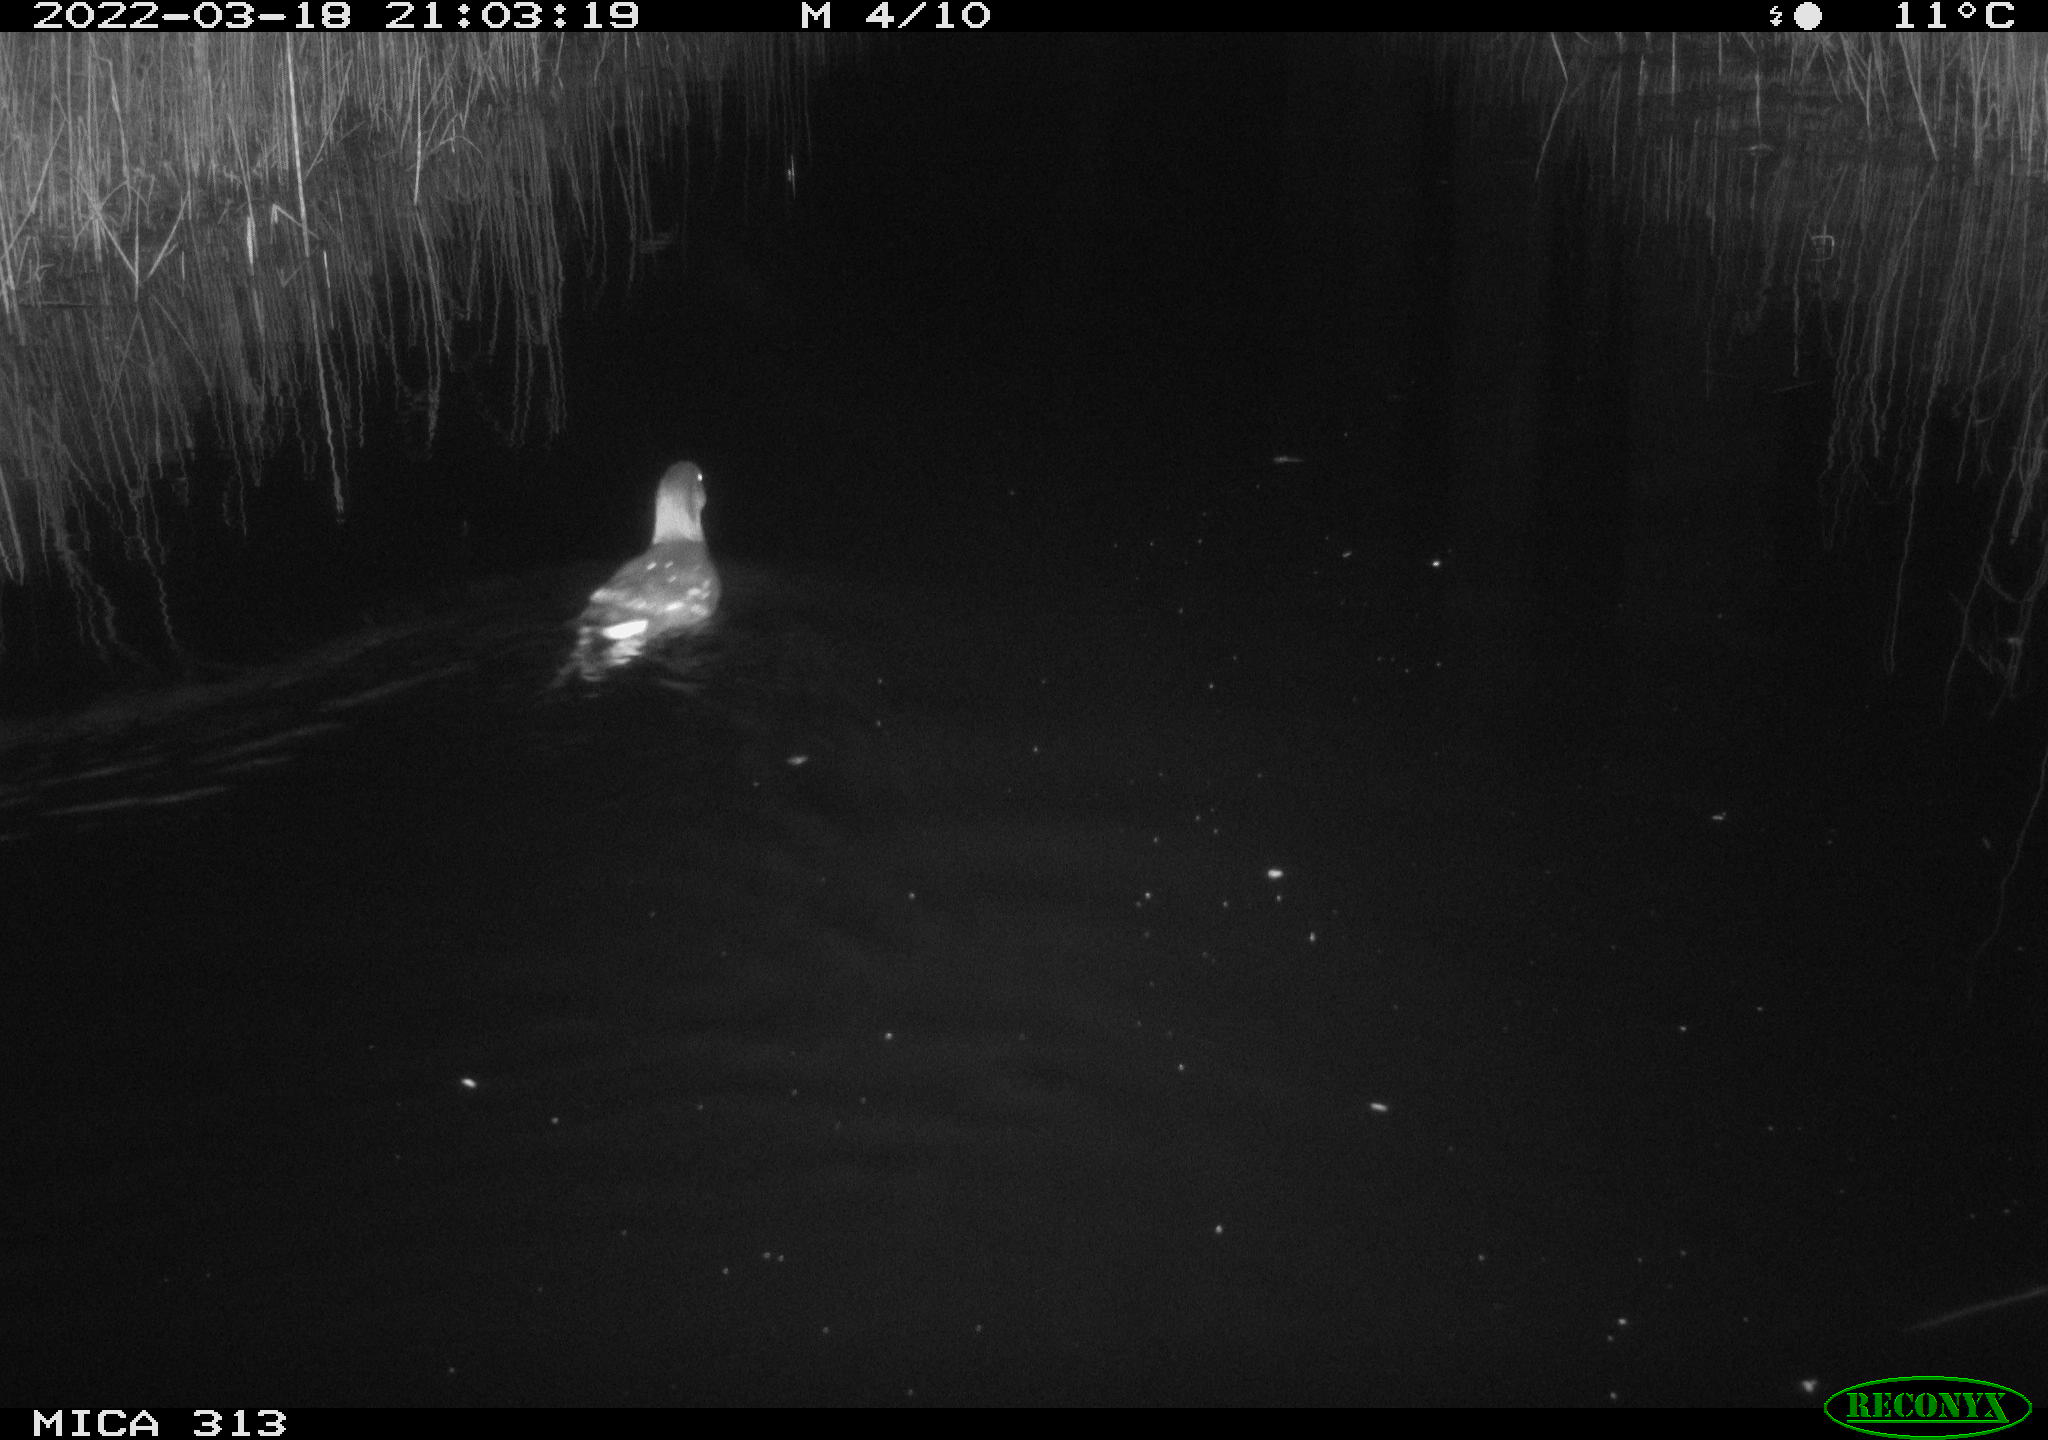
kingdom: Animalia
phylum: Chordata
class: Aves
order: Gruiformes
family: Rallidae
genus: Gallinula
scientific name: Gallinula chloropus
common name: Common moorhen
